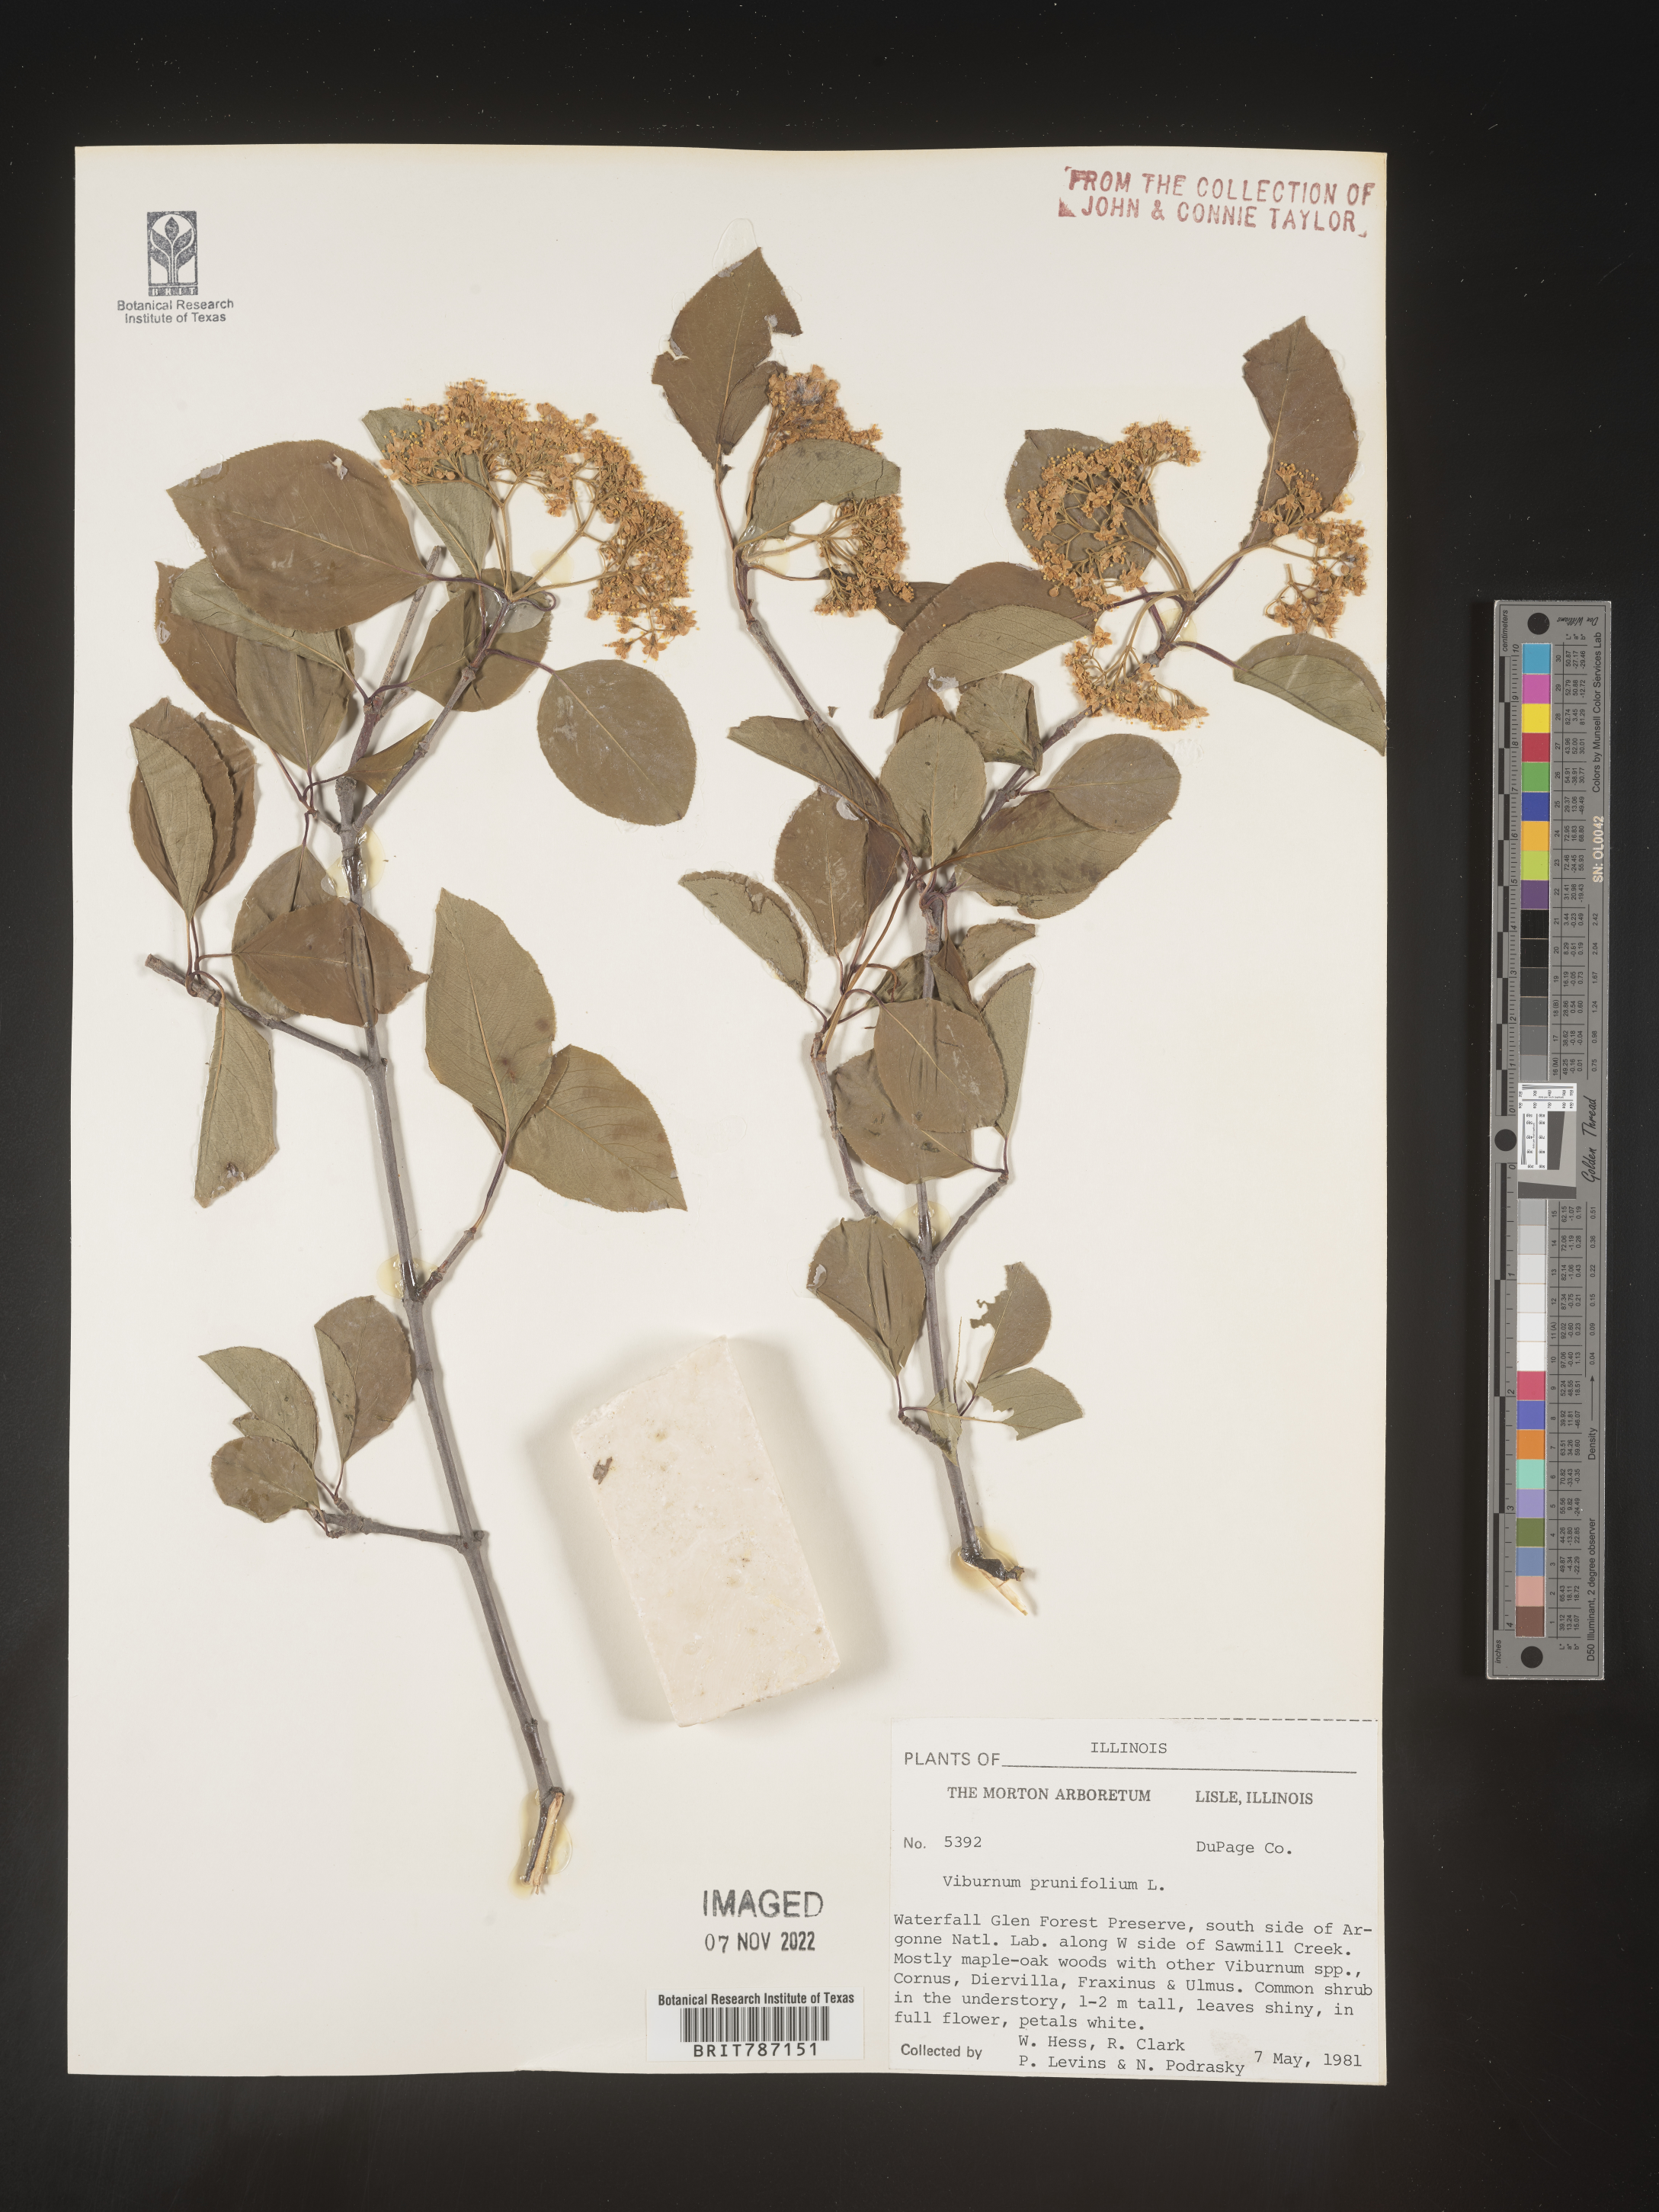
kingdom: Plantae
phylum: Tracheophyta
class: Magnoliopsida
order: Dipsacales
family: Viburnaceae
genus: Viburnum
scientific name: Viburnum prunifolium
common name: Black haw
